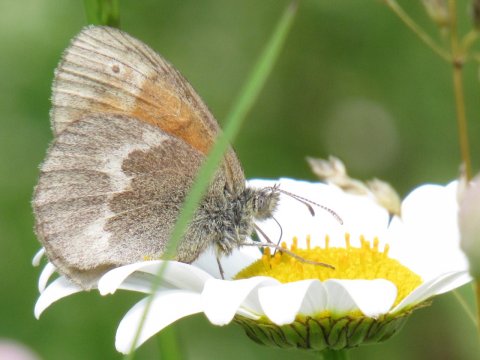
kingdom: Animalia
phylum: Arthropoda
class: Insecta
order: Lepidoptera
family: Nymphalidae
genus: Coenonympha
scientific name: Coenonympha tullia
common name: Large Heath
